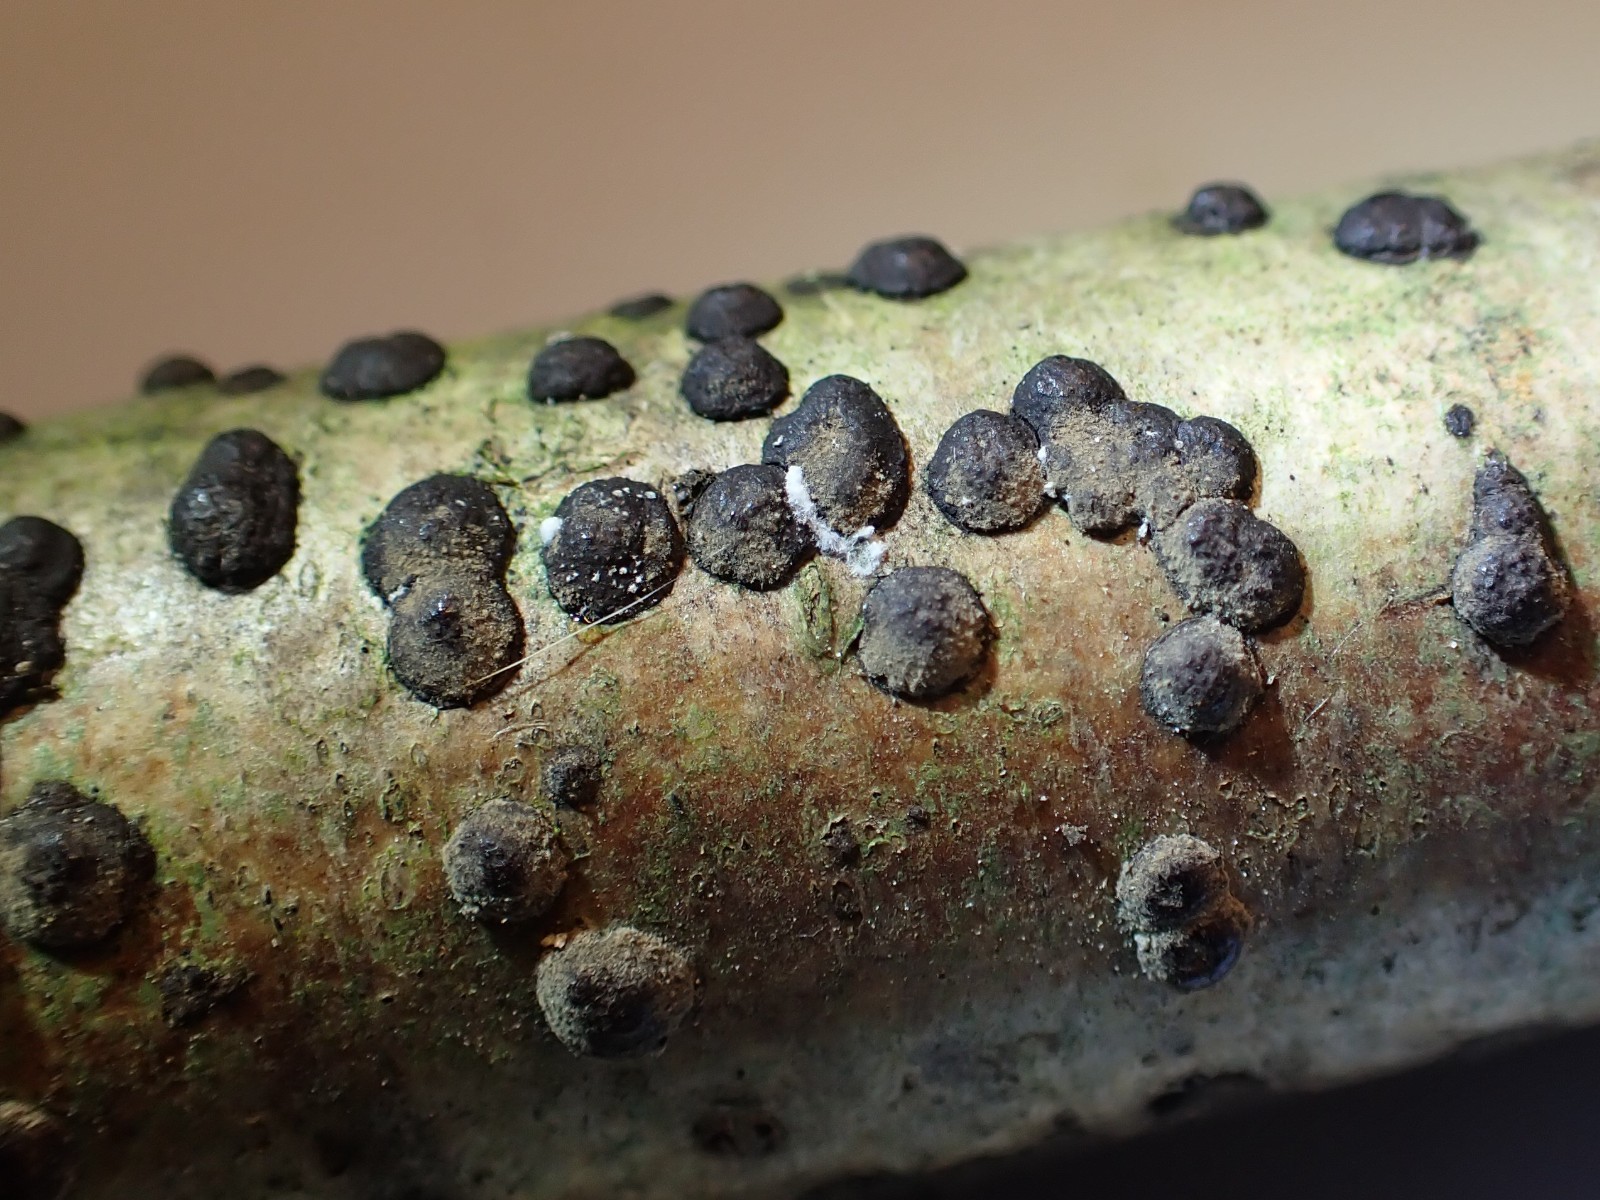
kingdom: Fungi
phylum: Ascomycota
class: Sordariomycetes
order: Xylariales
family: Hypoxylaceae
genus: Hypoxylon
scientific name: Hypoxylon fuscum
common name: kegleformet kulbær
